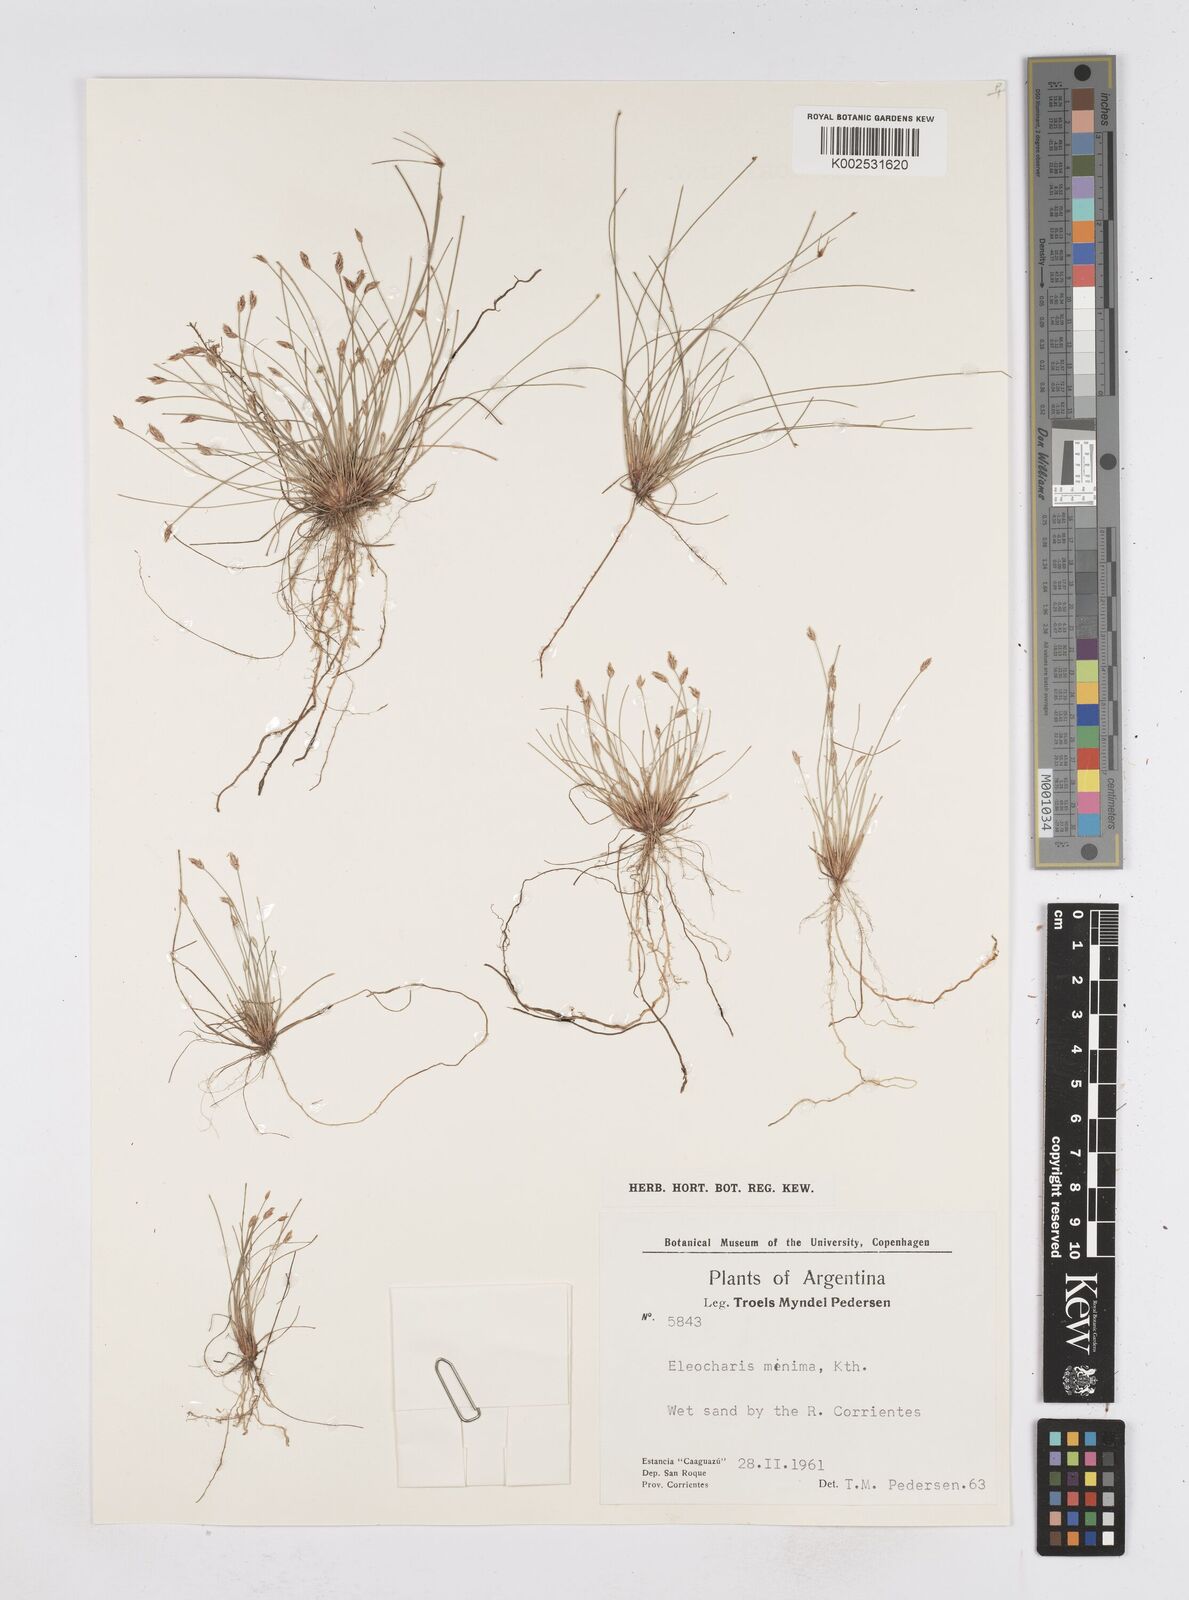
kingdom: Plantae
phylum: Tracheophyta
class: Liliopsida
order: Poales
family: Cyperaceae
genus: Eleocharis
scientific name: Eleocharis minima
